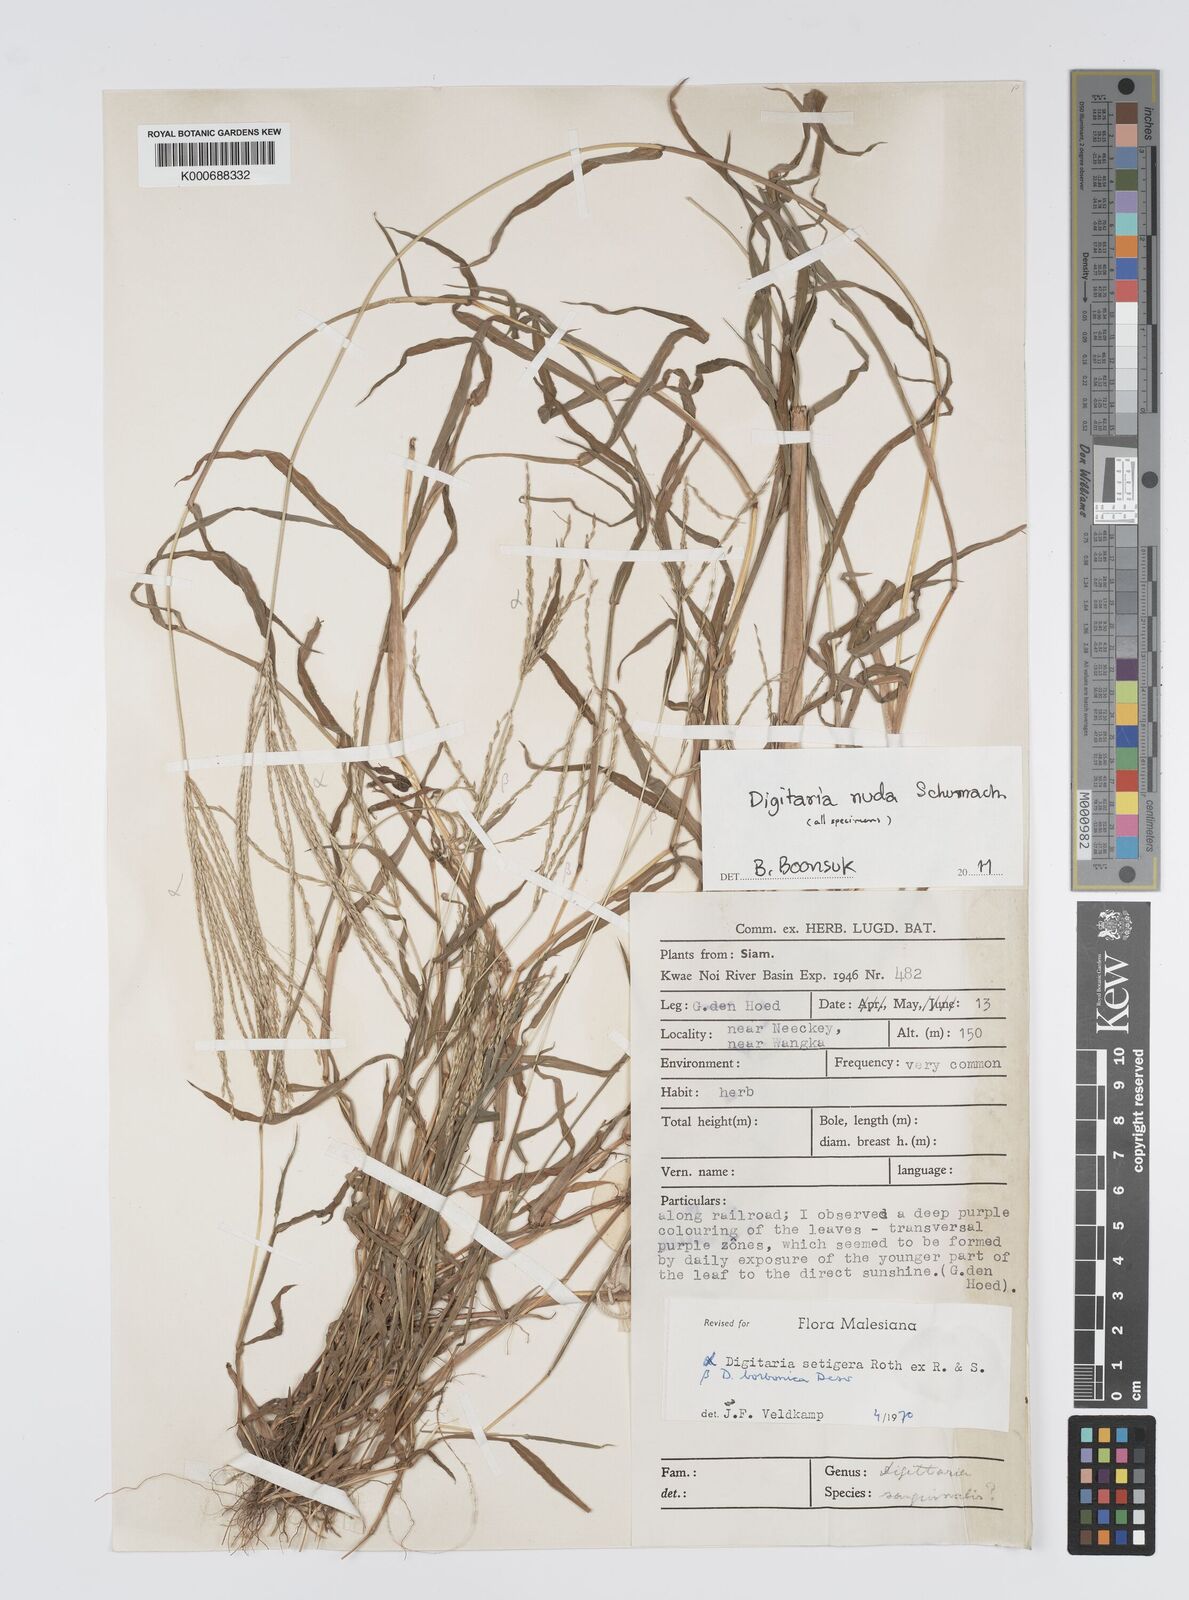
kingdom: Plantae
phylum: Tracheophyta
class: Liliopsida
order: Poales
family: Poaceae
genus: Digitaria
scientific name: Digitaria
